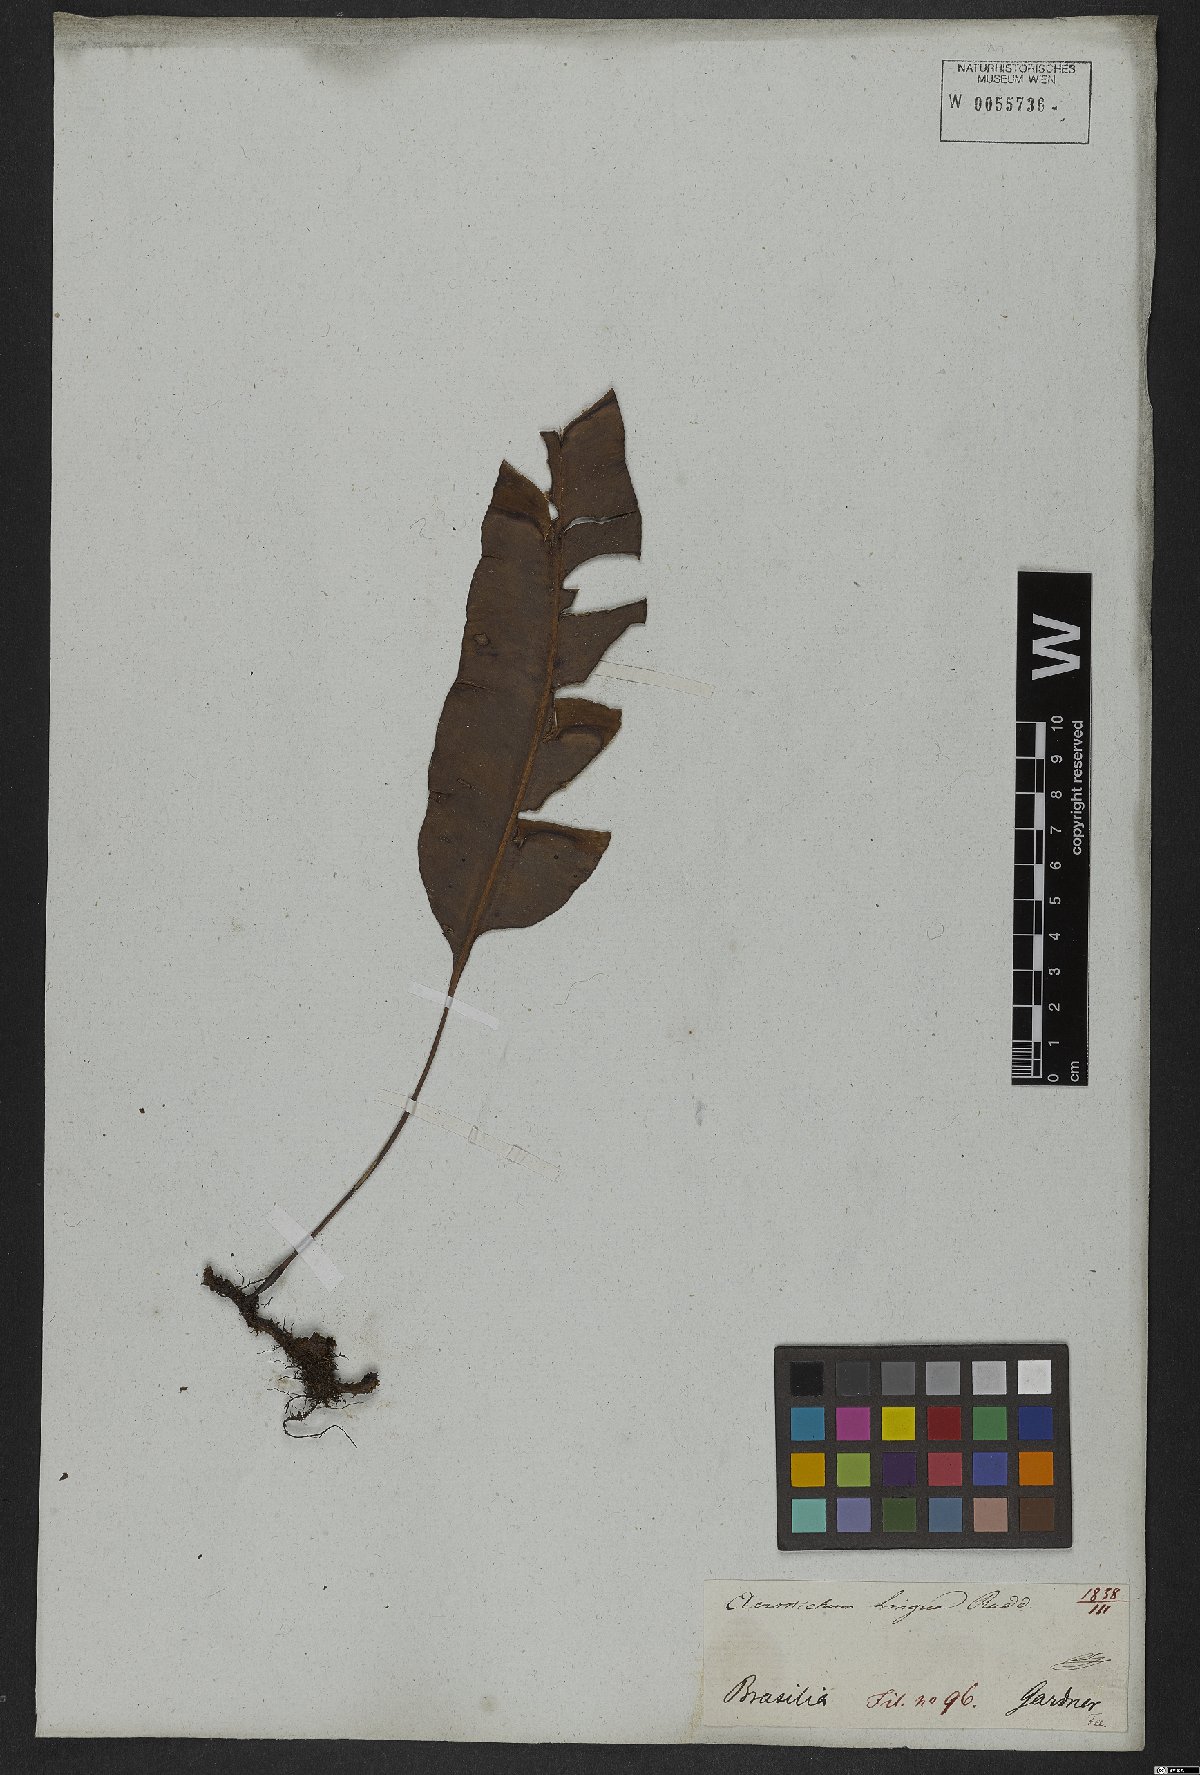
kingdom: Plantae
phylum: Tracheophyta
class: Polypodiopsida
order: Polypodiales
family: Dryopteridaceae
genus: Elaphoglossum
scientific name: Elaphoglossum brachyneuron
